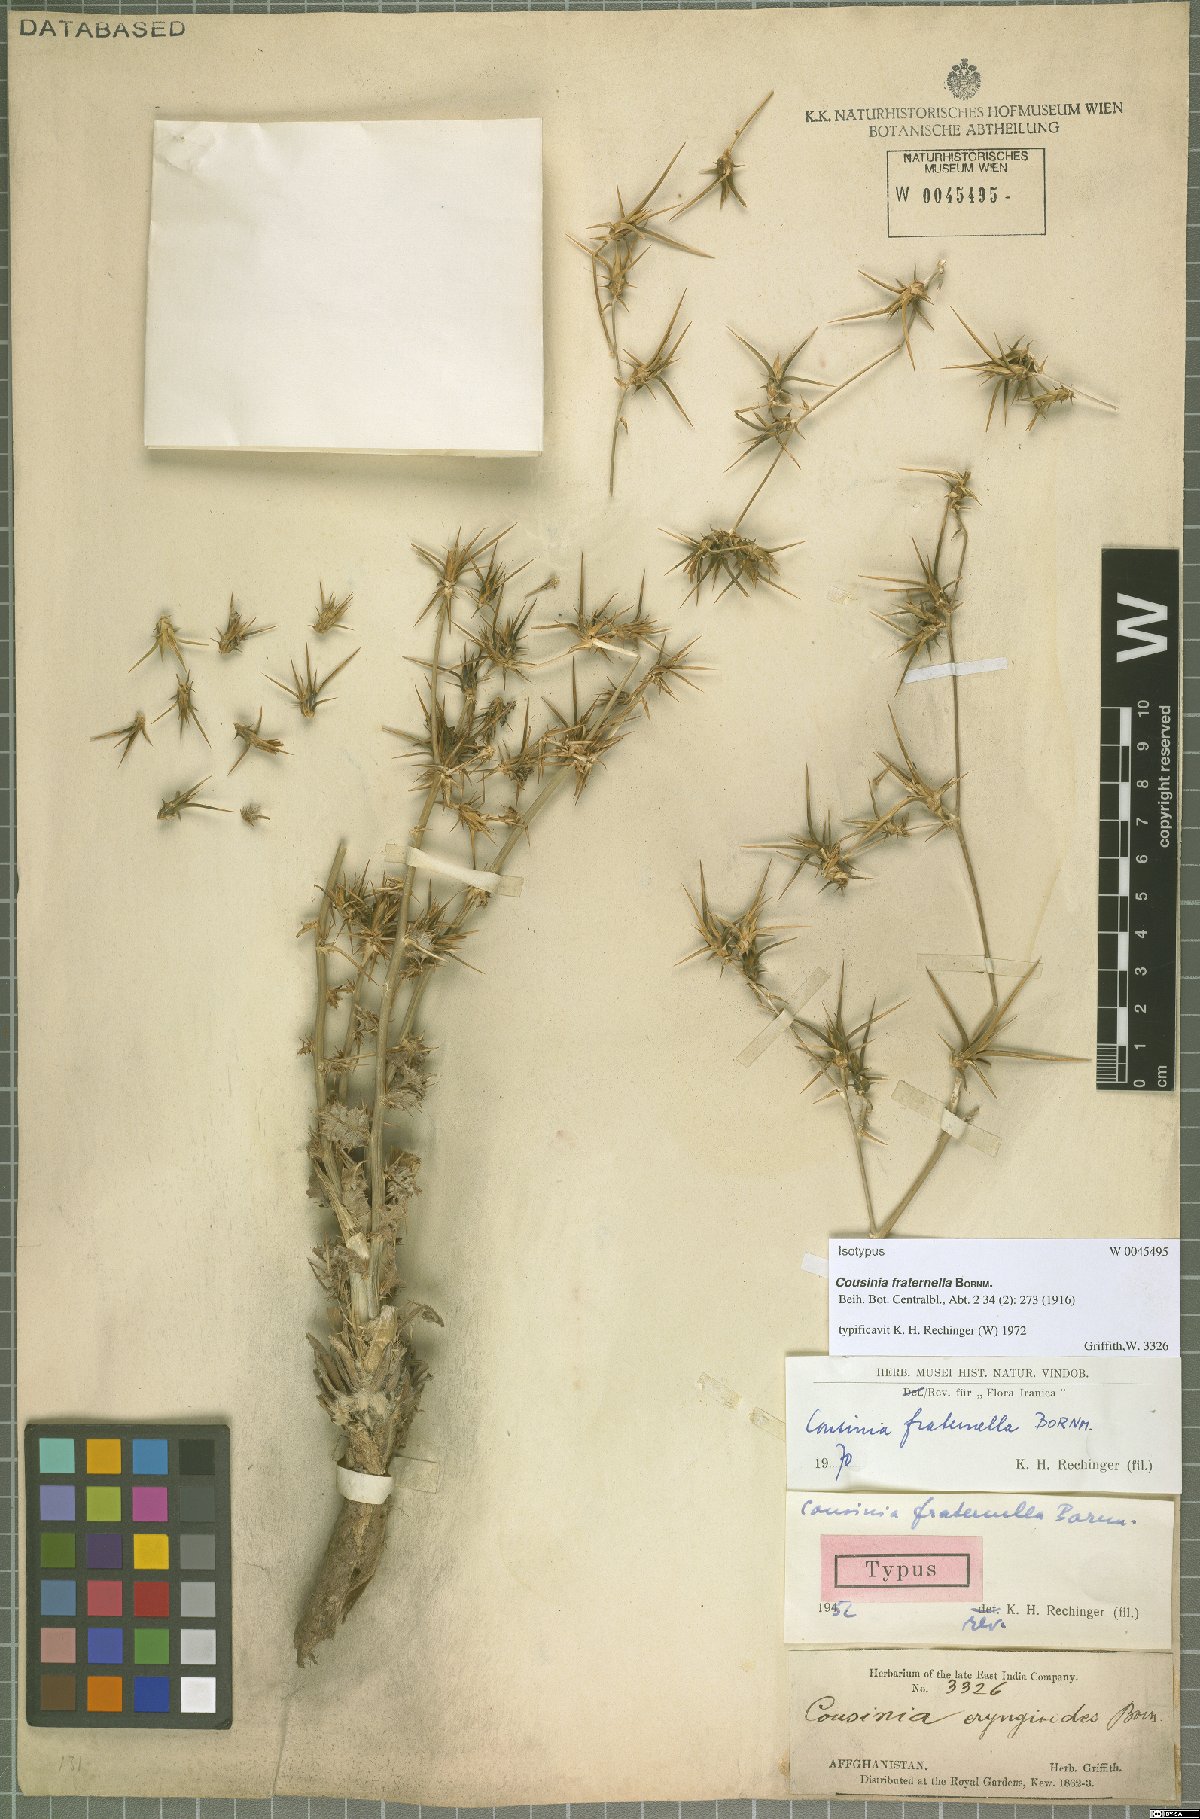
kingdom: Plantae
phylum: Tracheophyta
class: Magnoliopsida
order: Asterales
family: Asteraceae
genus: Cousinia
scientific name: Cousinia fraternella
